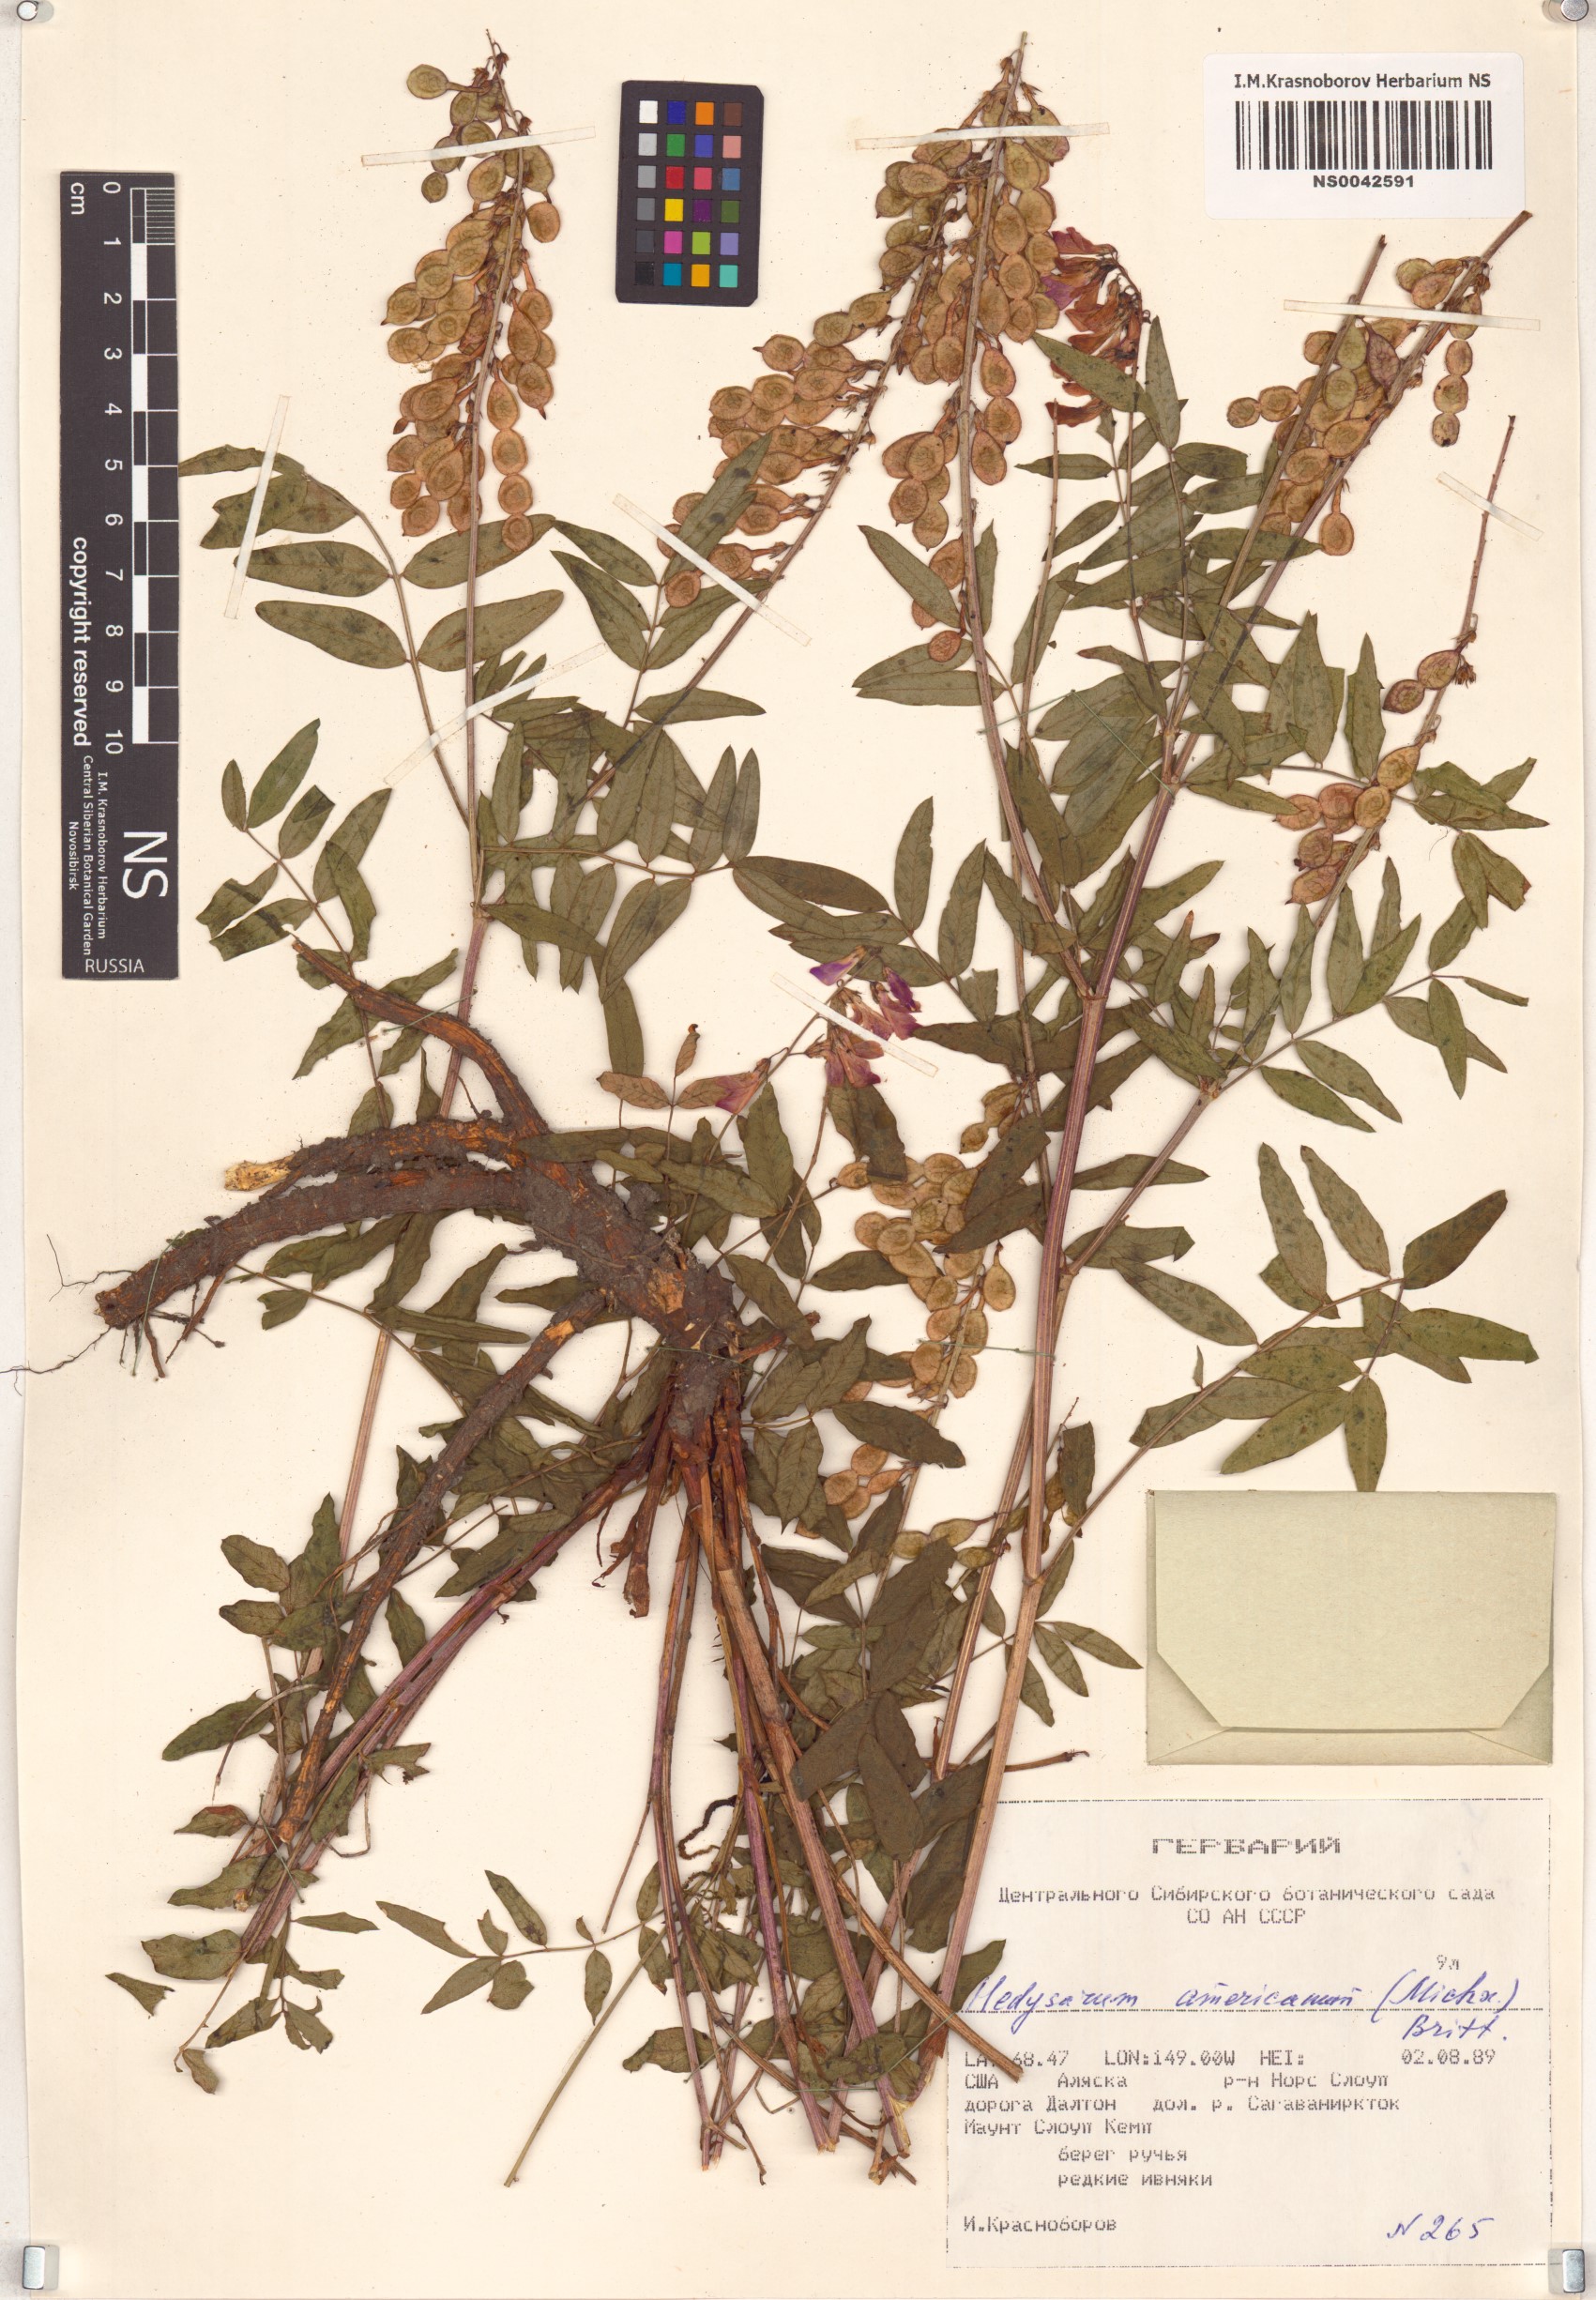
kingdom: Plantae
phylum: Tracheophyta
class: Magnoliopsida
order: Fabales
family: Fabaceae
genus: Hedysarum
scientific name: Hedysarum americanum
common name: Alpine hedysarum
